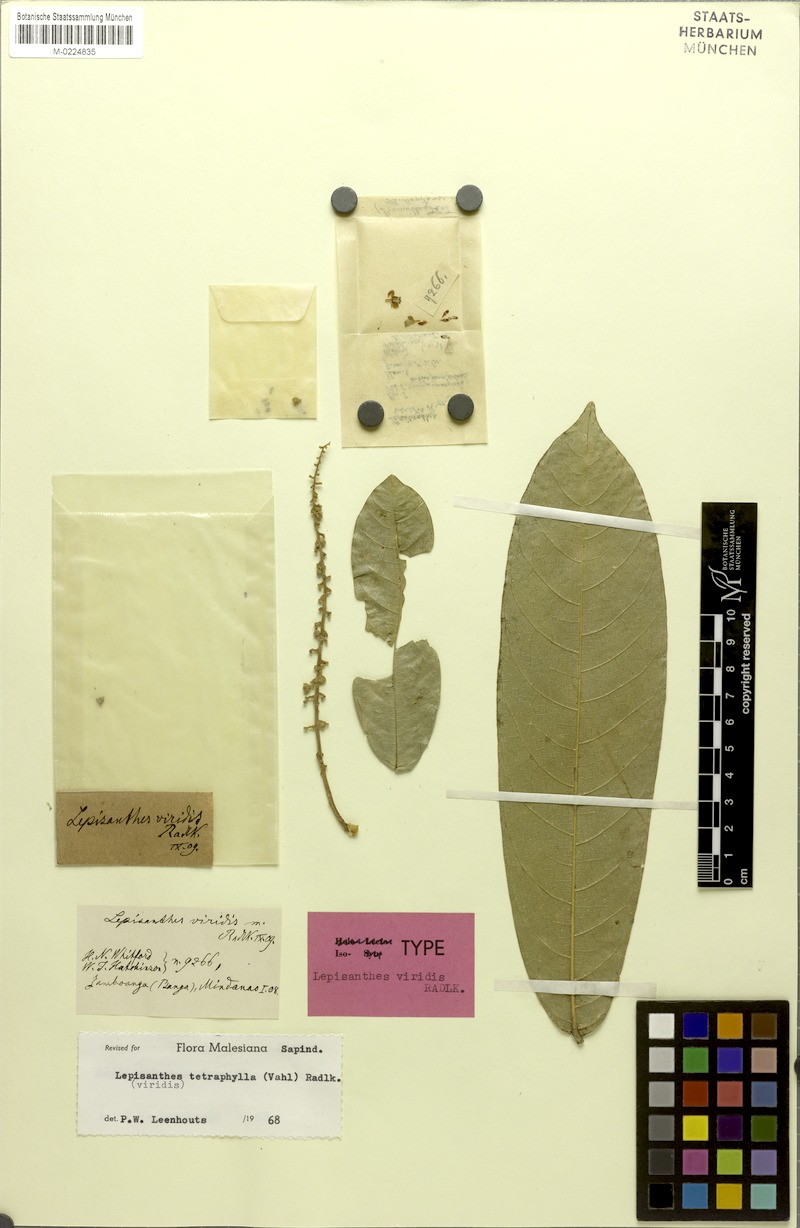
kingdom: Plantae
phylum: Tracheophyta
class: Magnoliopsida
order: Sapindales
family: Sapindaceae
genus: Lepisanthes
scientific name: Lepisanthes tetraphylla
